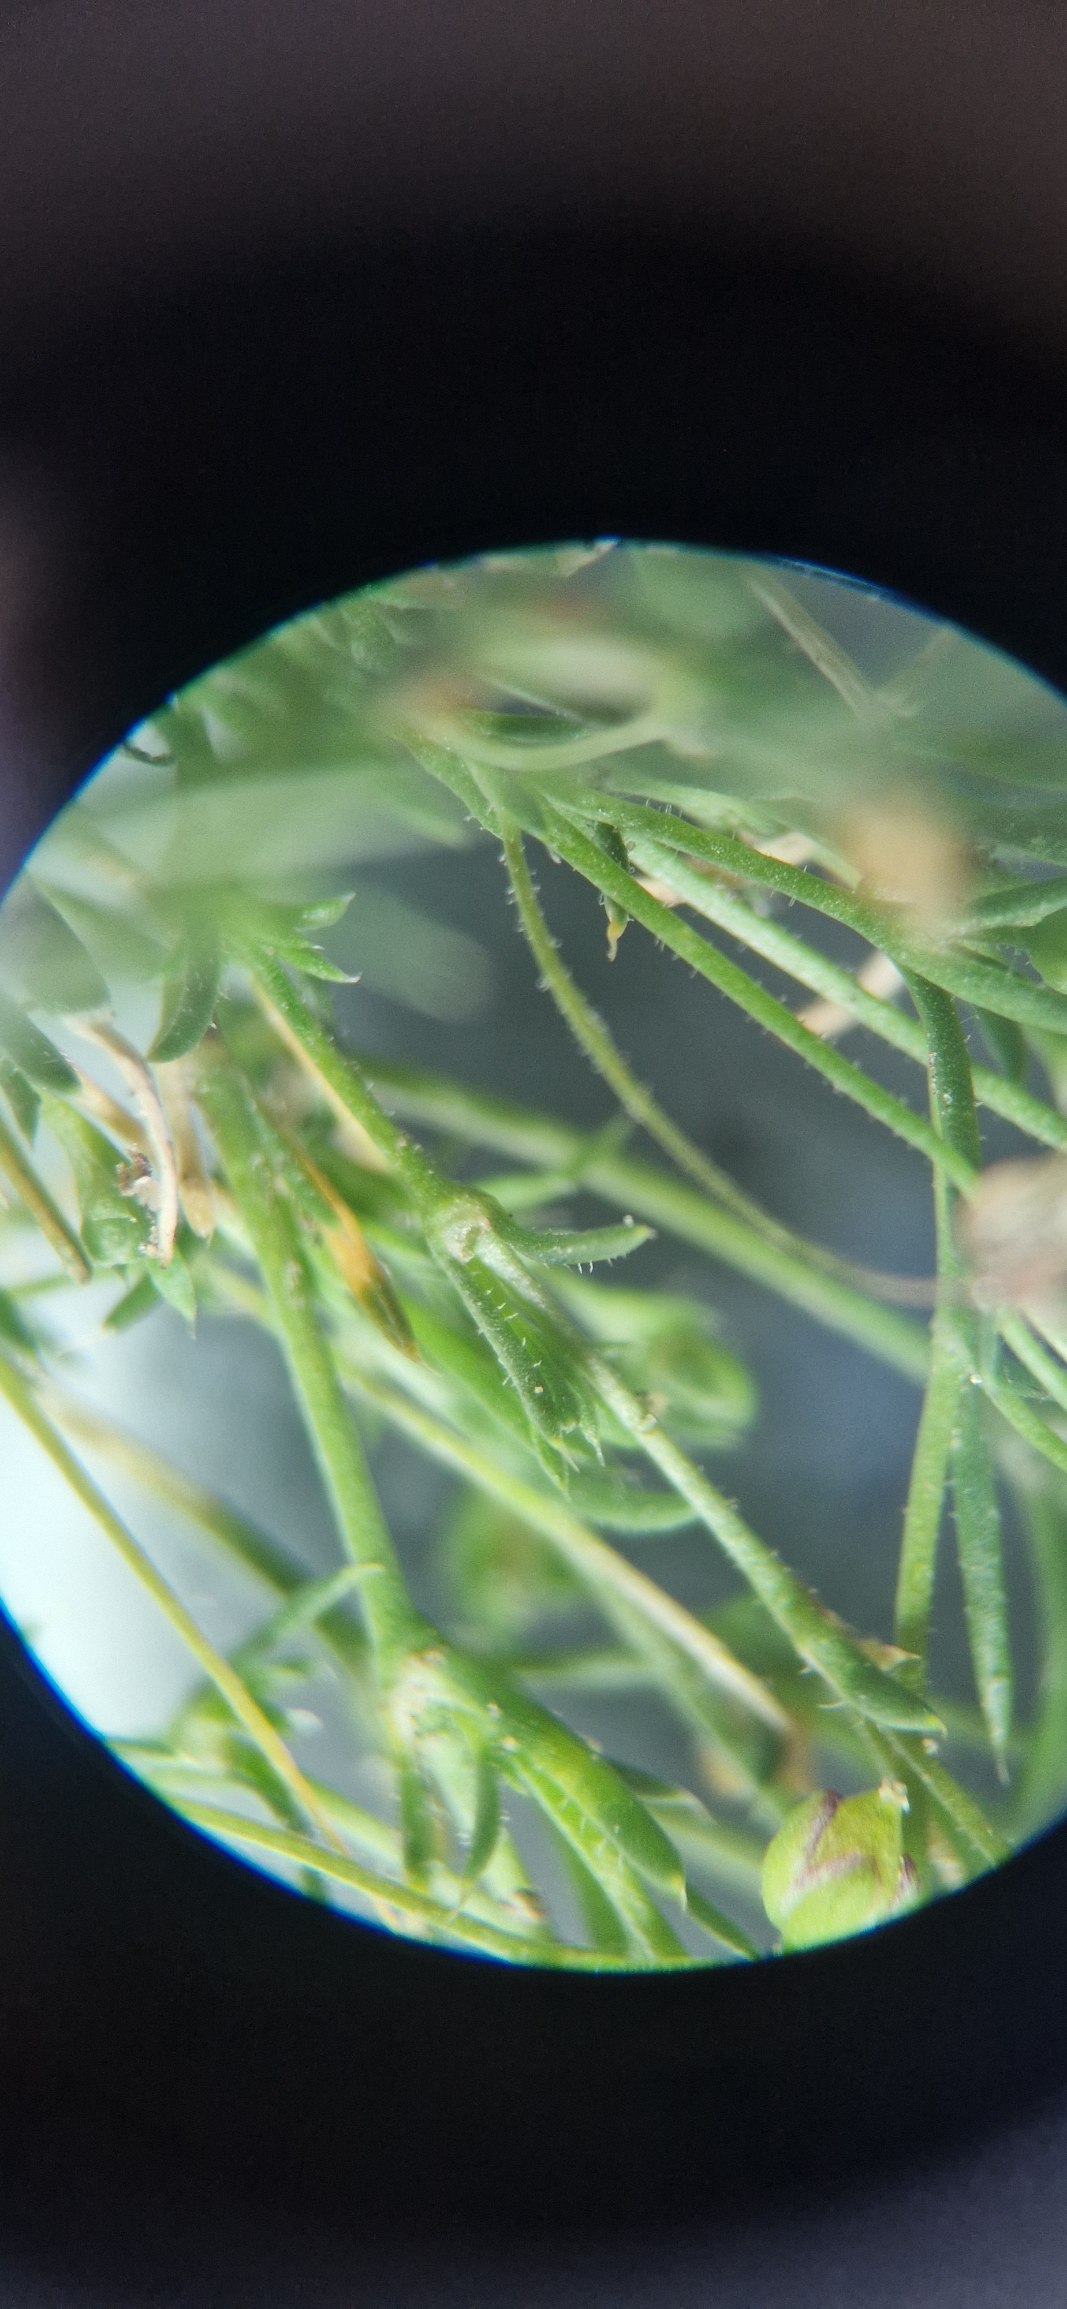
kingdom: Plantae
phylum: Tracheophyta
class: Magnoliopsida
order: Caryophyllales
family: Caryophyllaceae
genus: Sagina
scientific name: Sagina micropetala
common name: Håret firling
